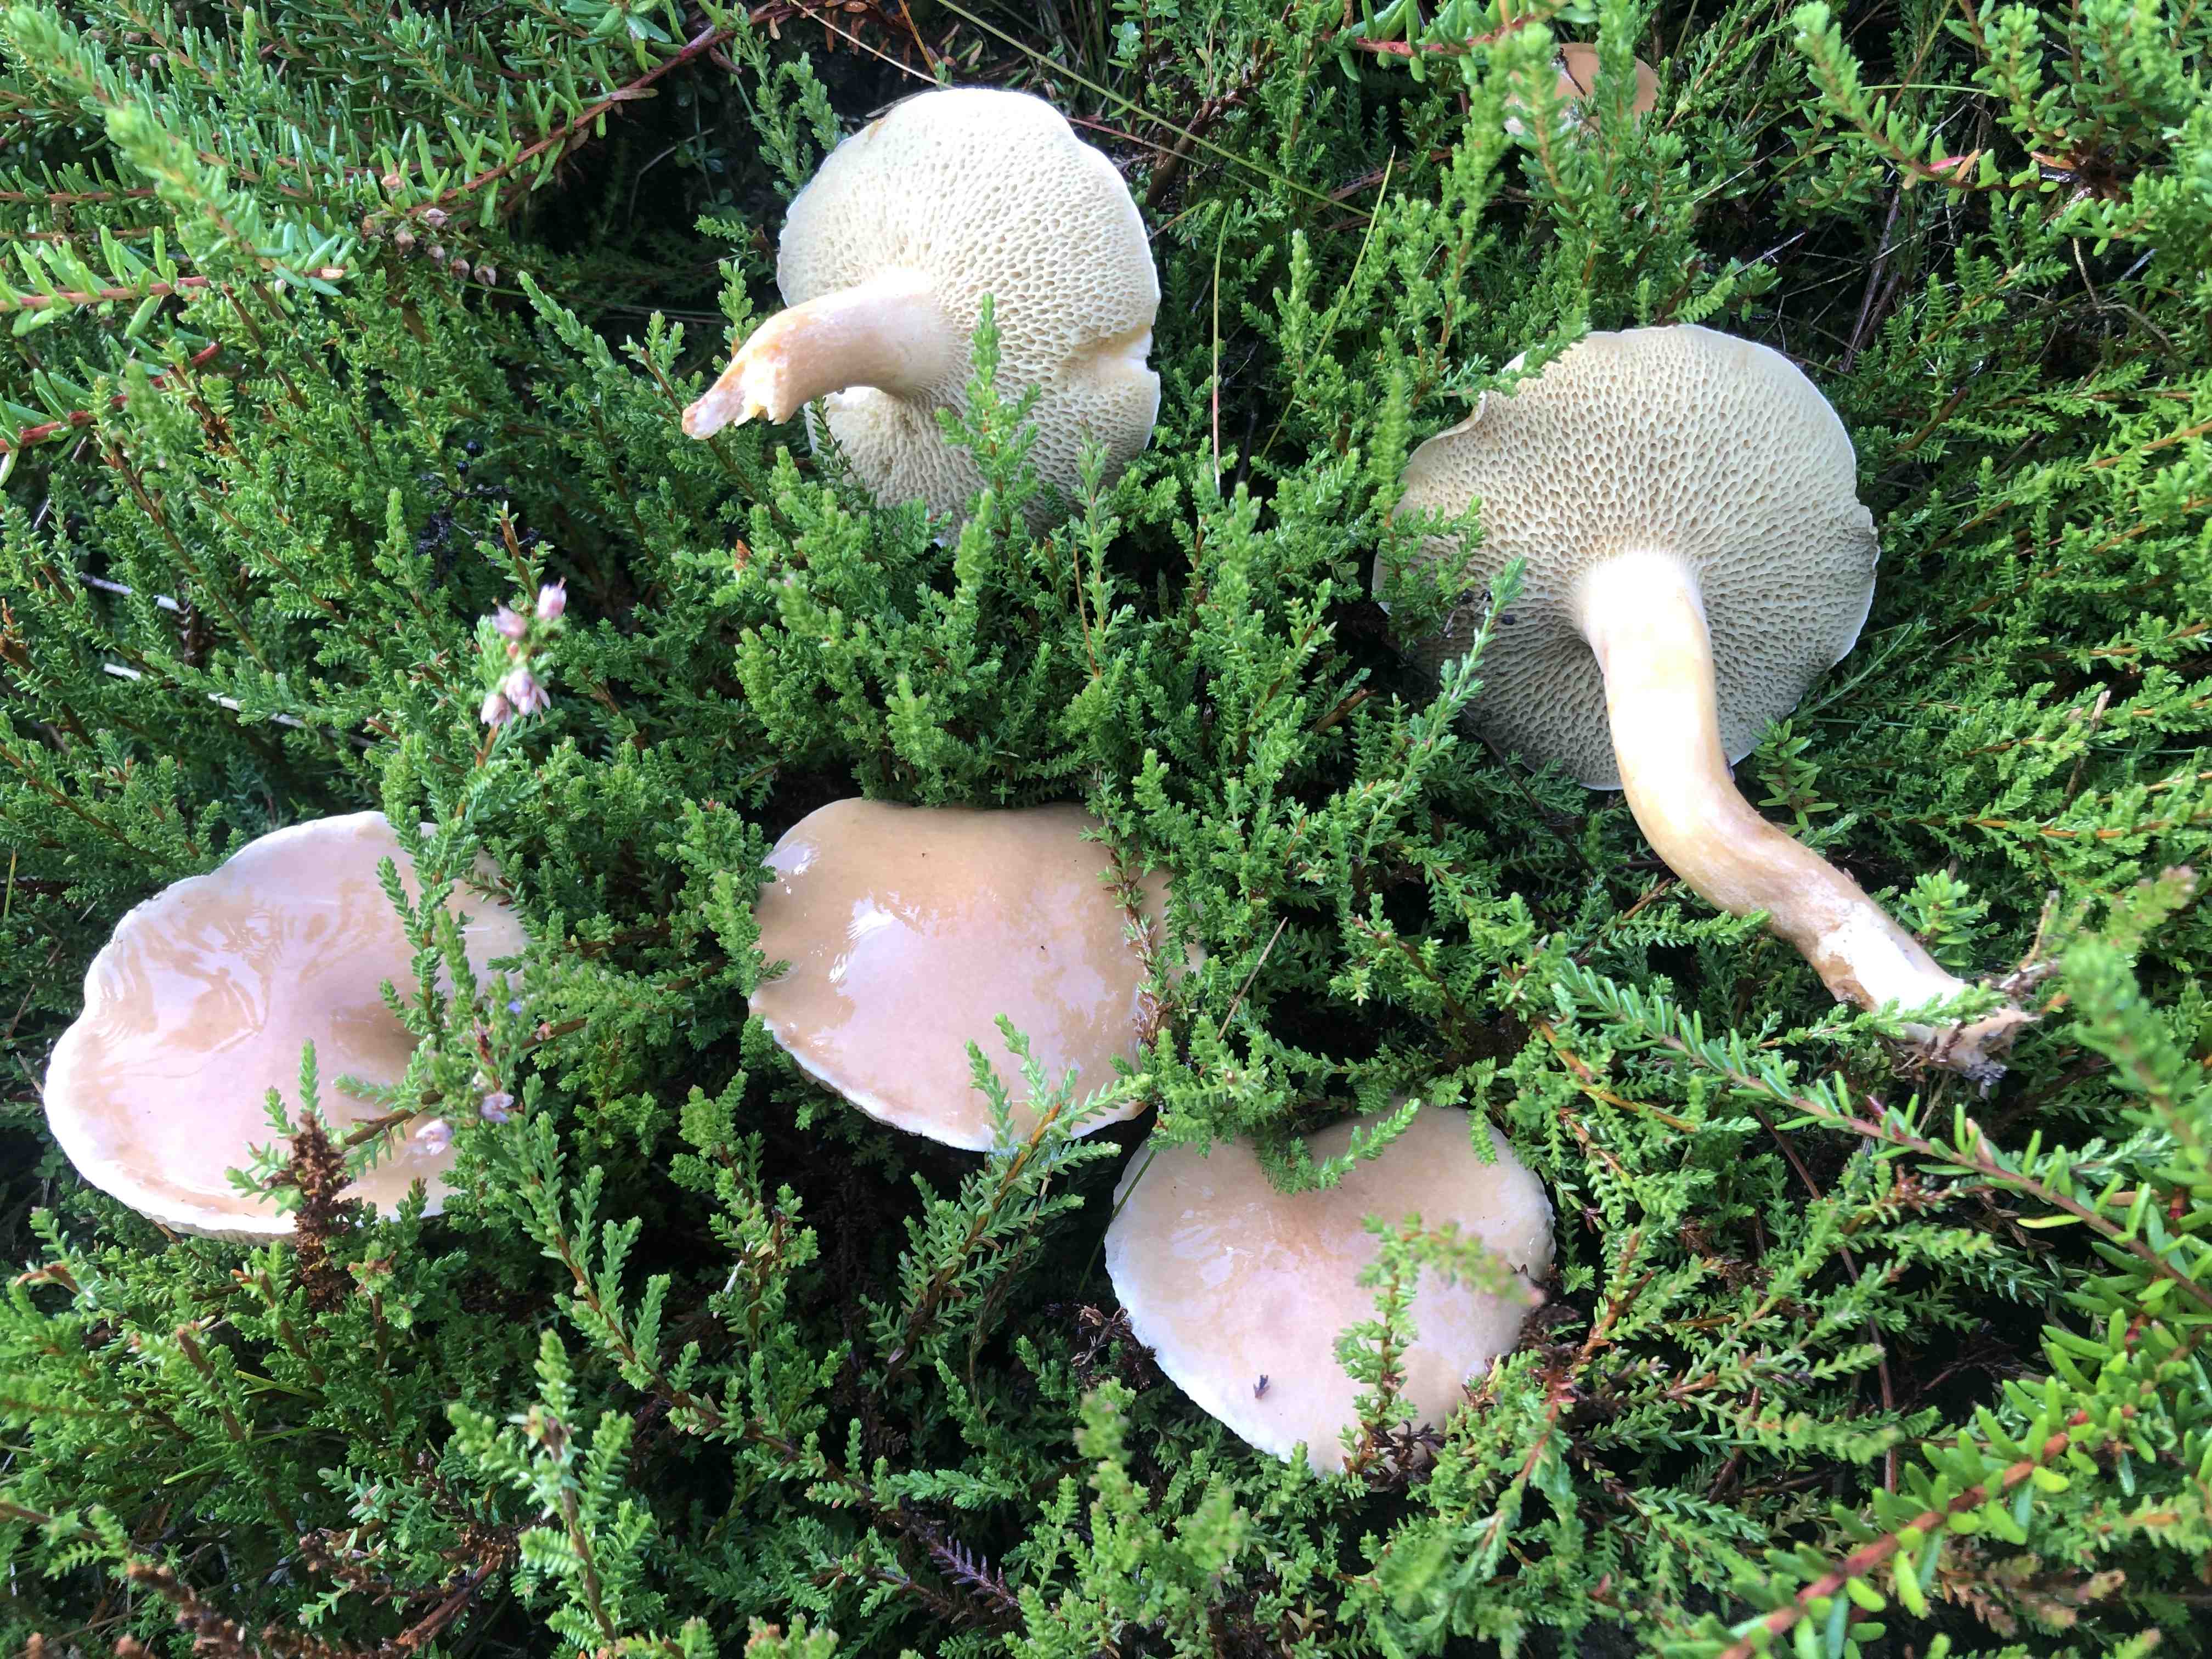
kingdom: Fungi
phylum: Basidiomycota
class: Agaricomycetes
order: Boletales
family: Suillaceae
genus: Suillus
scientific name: Suillus bovinus
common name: grovporet slimrørhat
